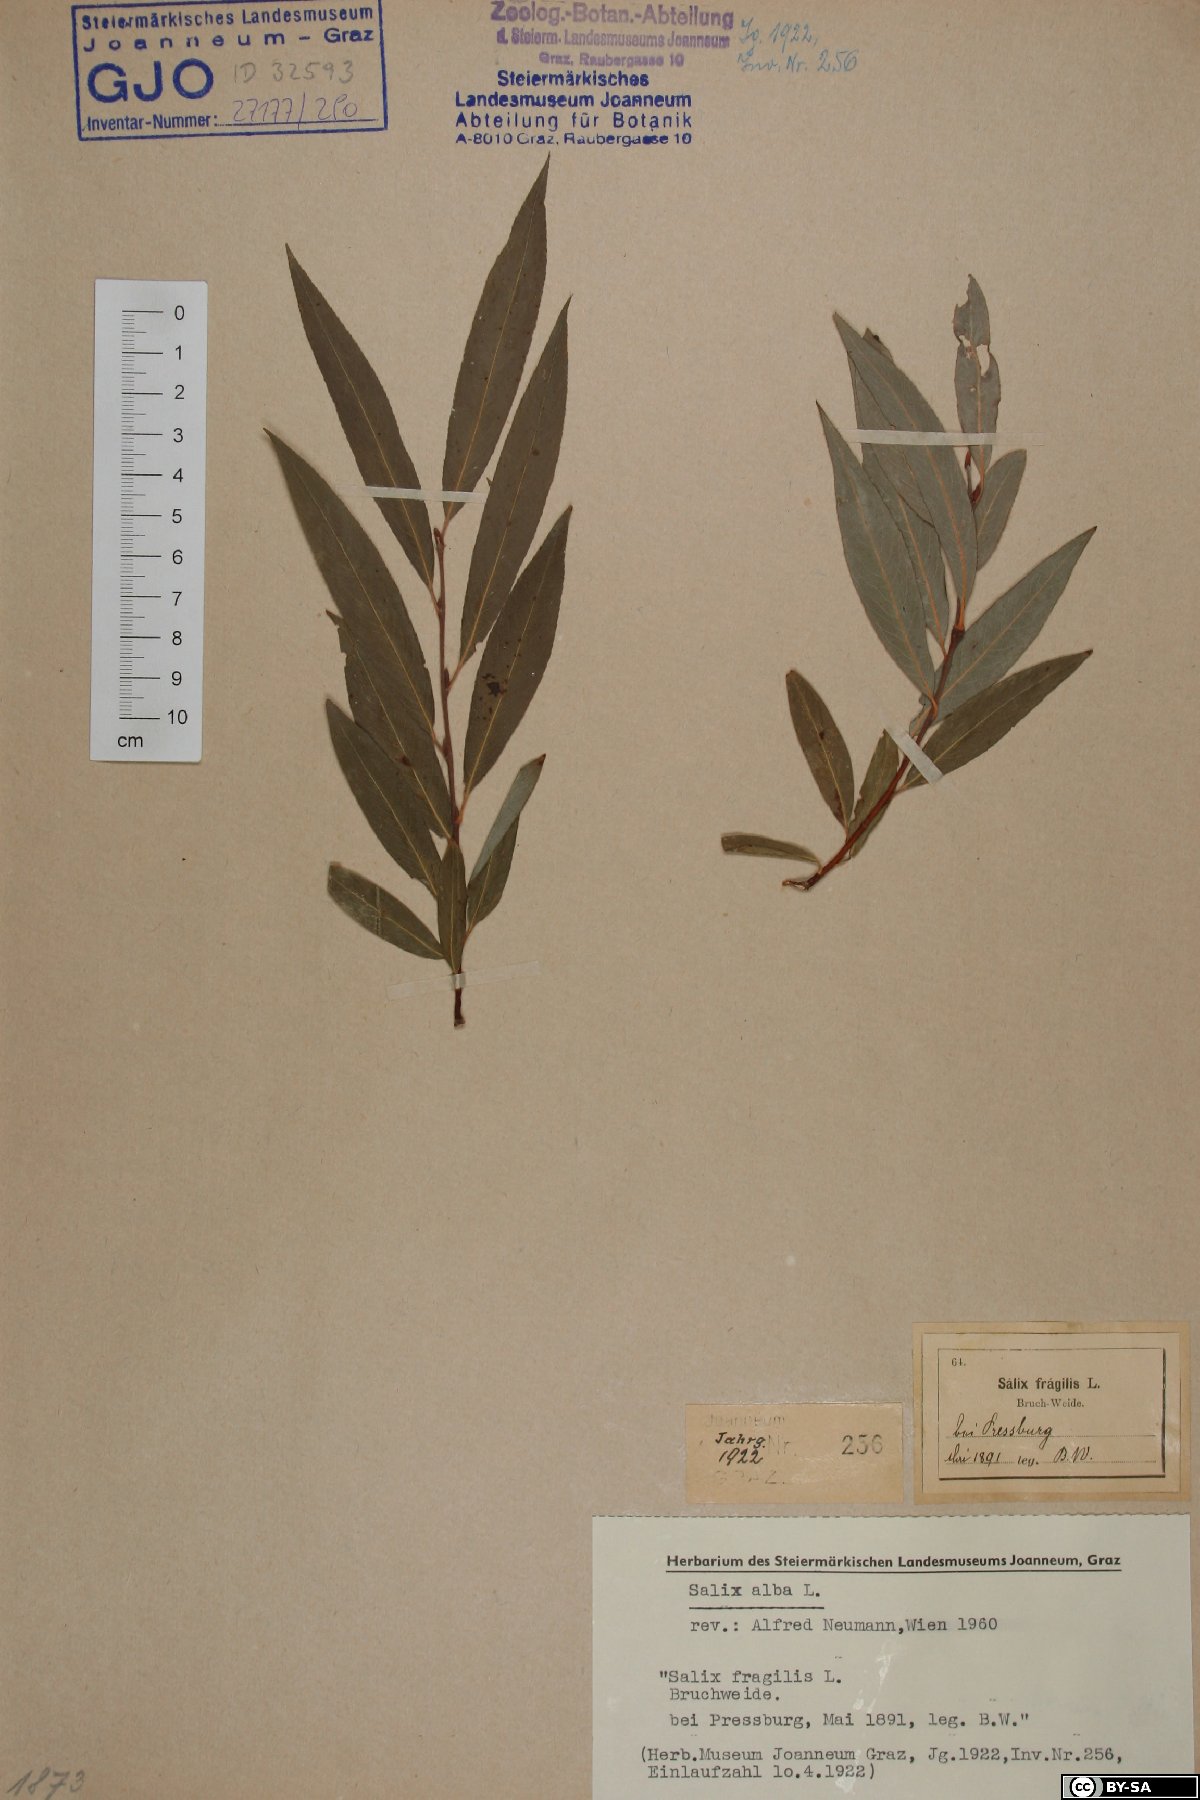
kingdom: Plantae
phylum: Tracheophyta
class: Magnoliopsida
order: Malpighiales
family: Salicaceae
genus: Salix
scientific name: Salix alba
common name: White willow
